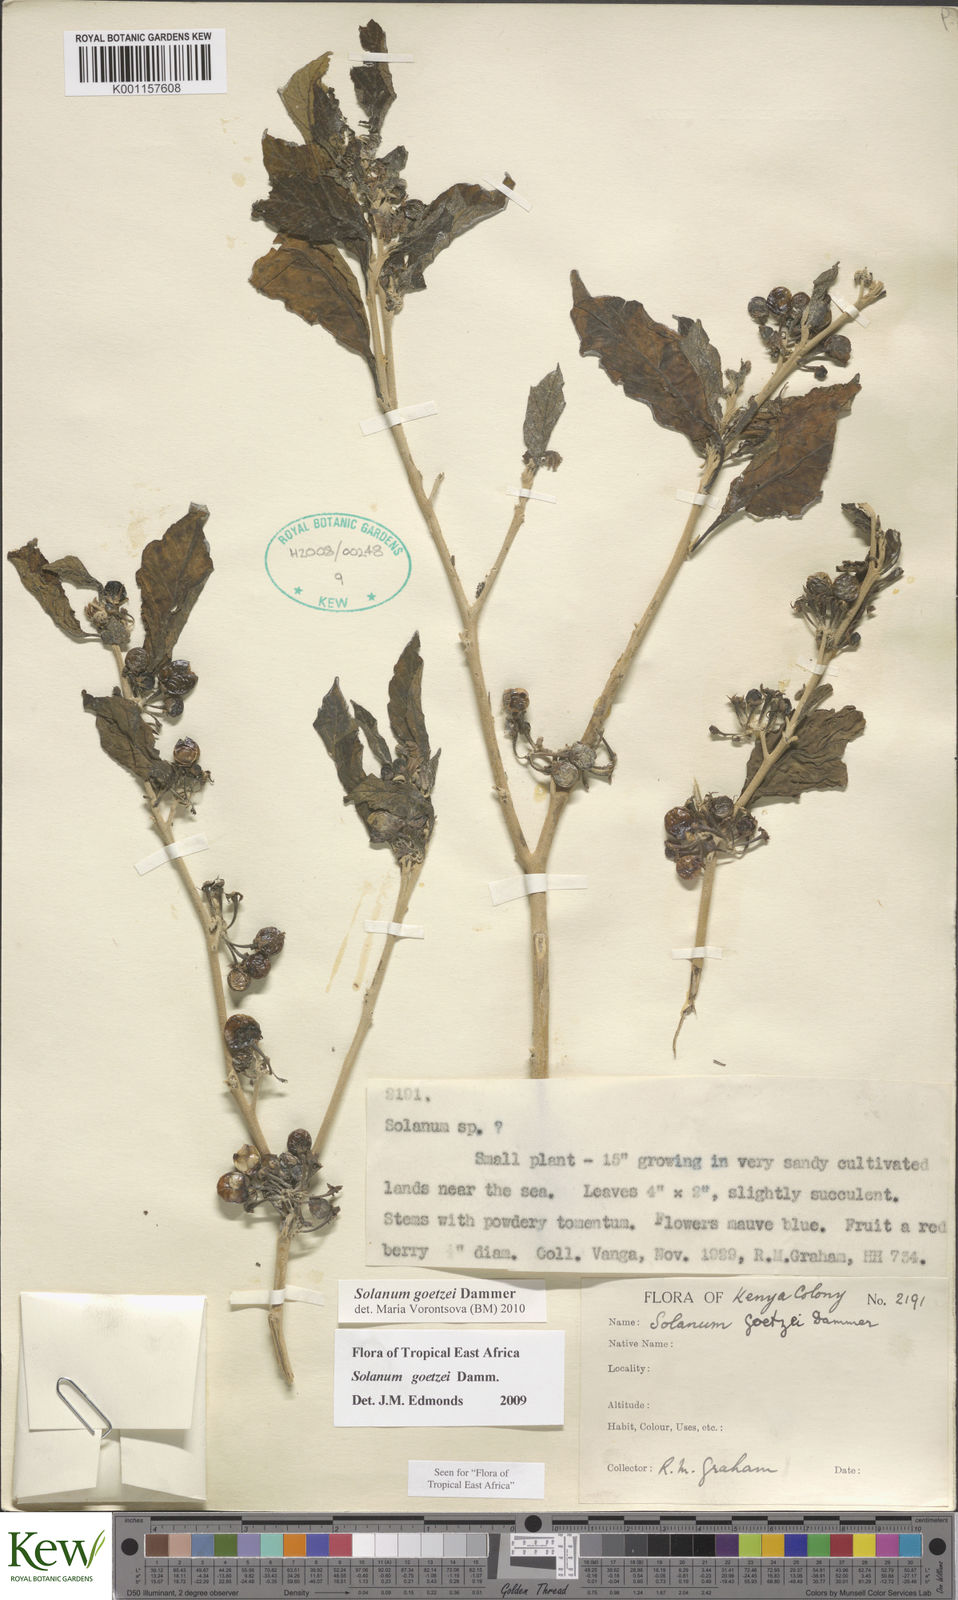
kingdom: Plantae
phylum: Tracheophyta
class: Magnoliopsida
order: Solanales
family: Solanaceae
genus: Solanum
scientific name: Solanum goetzei
